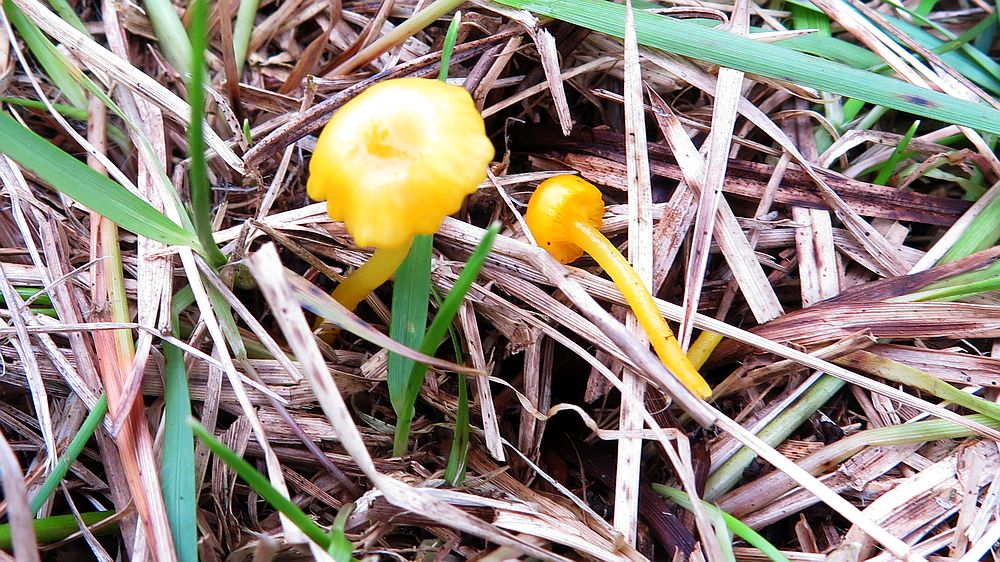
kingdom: Fungi
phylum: Basidiomycota
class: Agaricomycetes
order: Agaricales
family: Hygrophoraceae
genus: Gloioxanthomyces
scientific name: Gloioxanthomyces vitellinus
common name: kromgul vokshat
